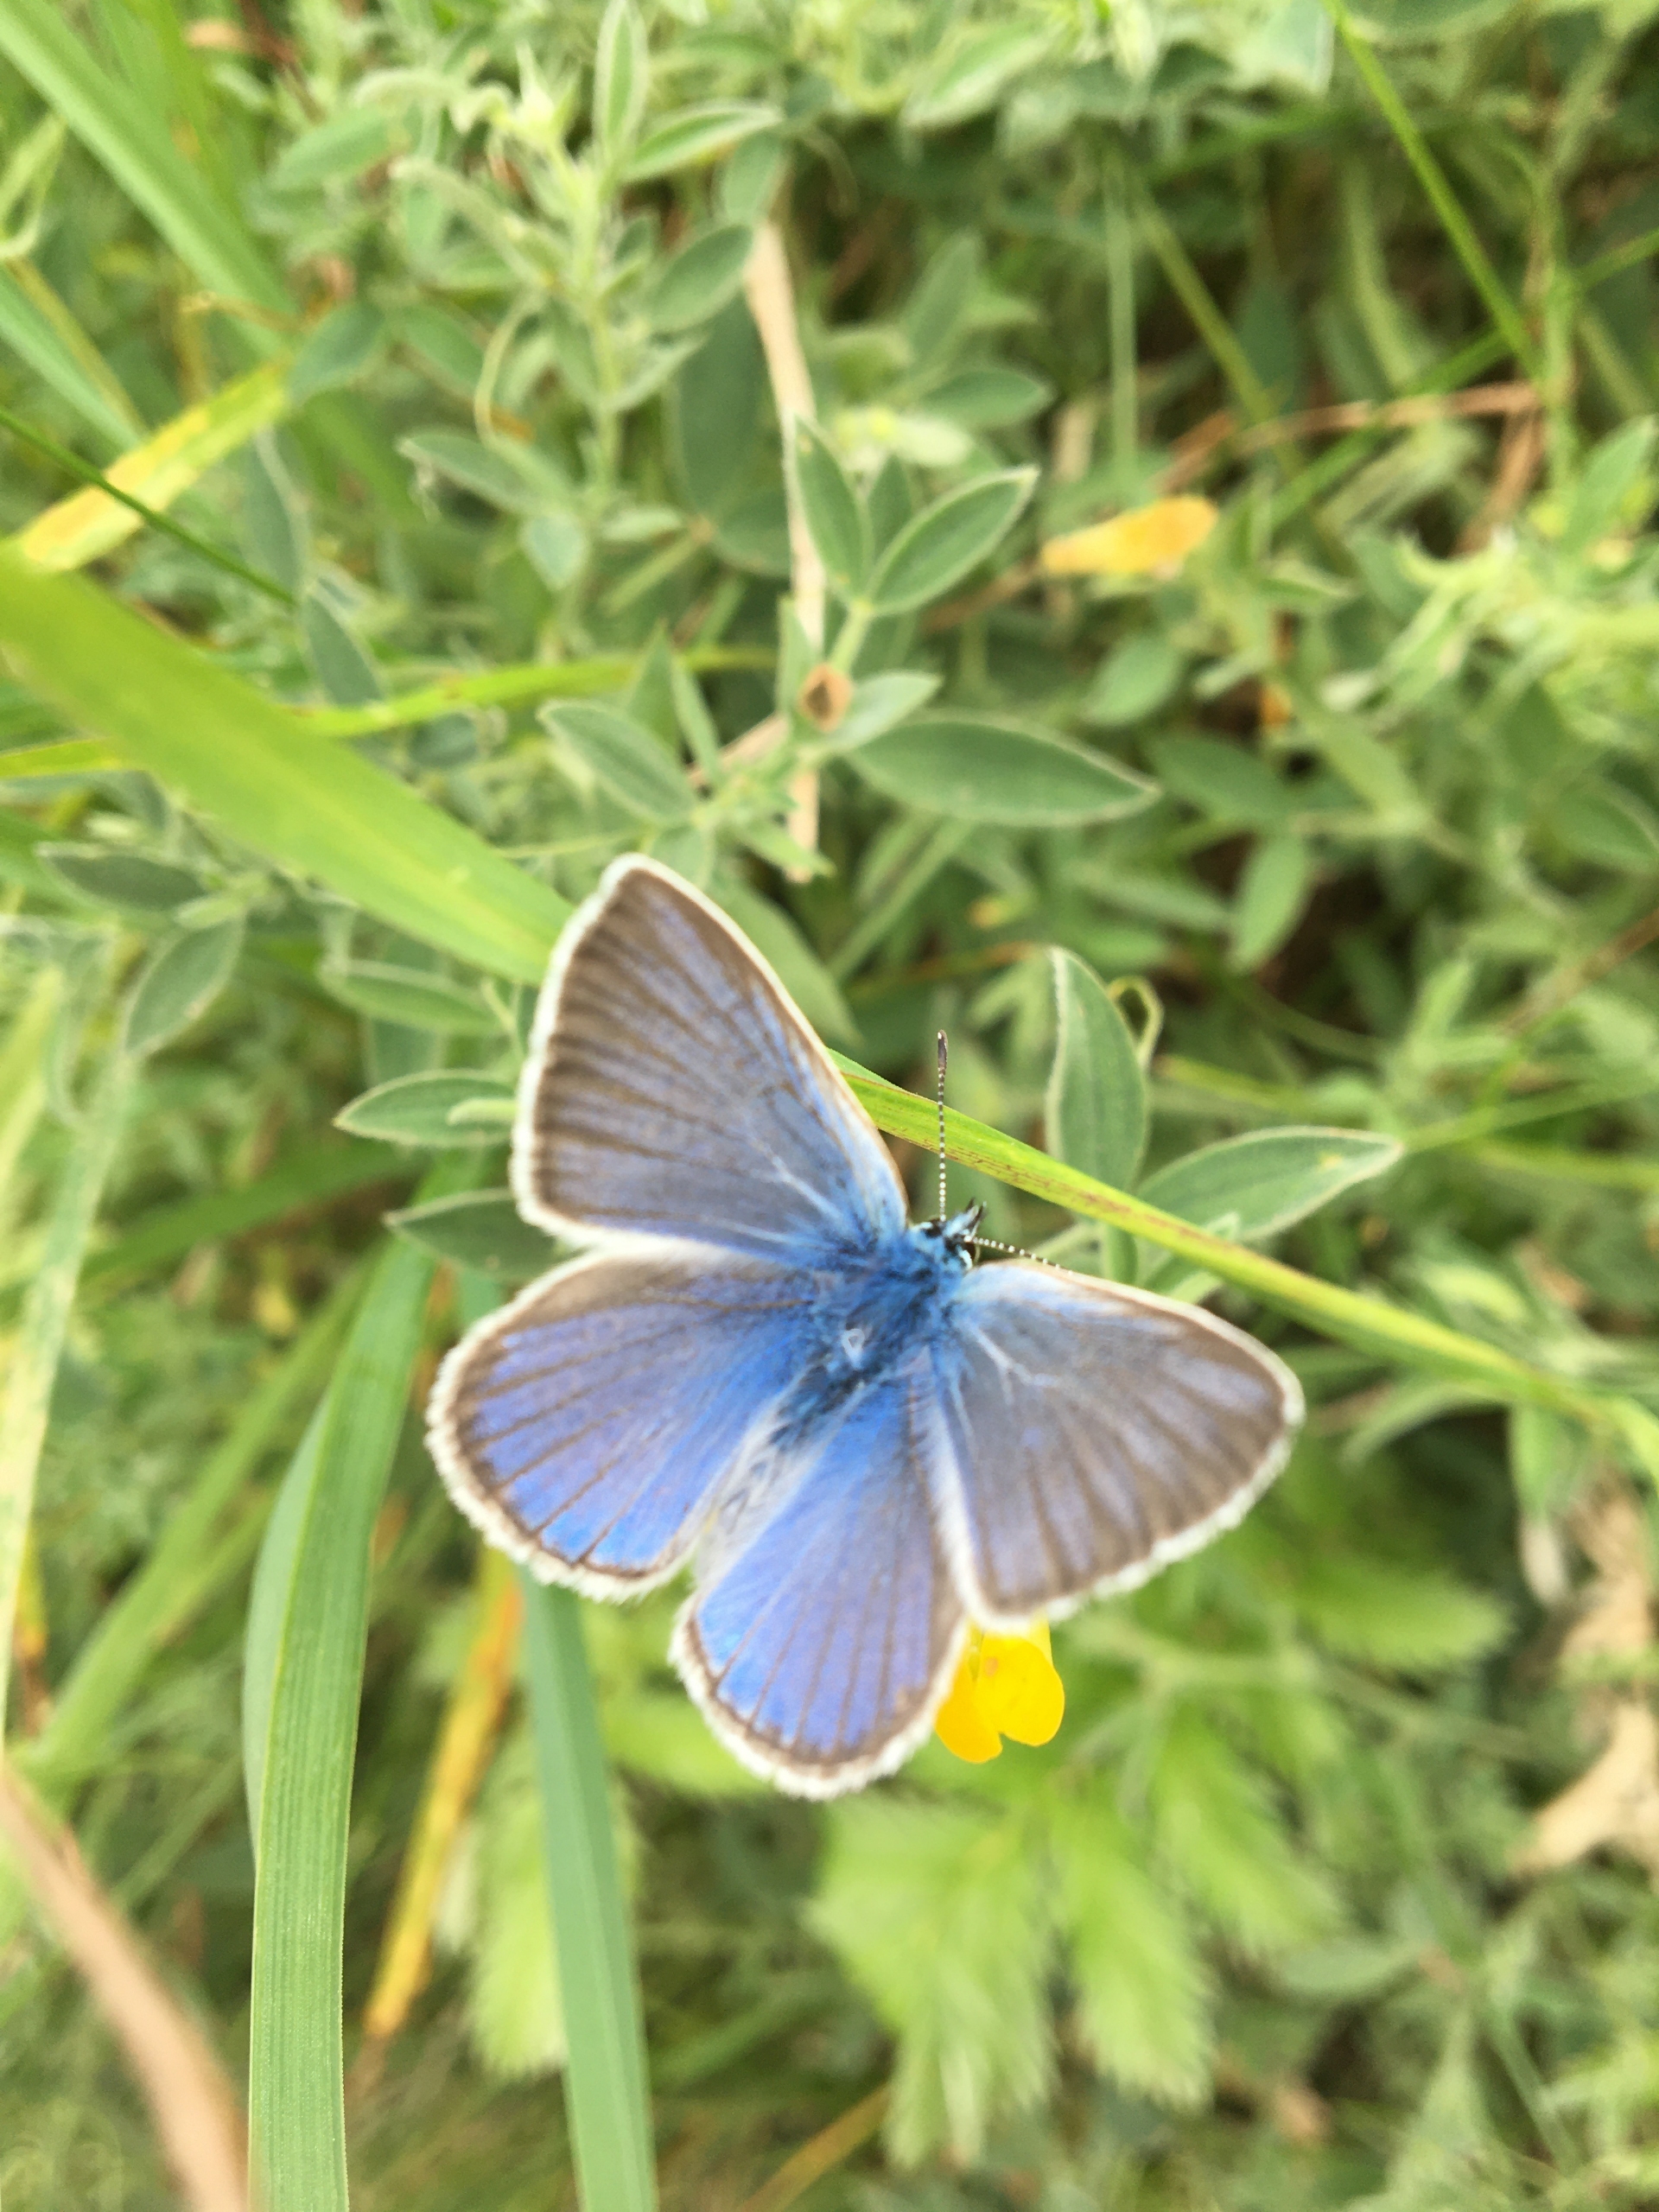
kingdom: Animalia
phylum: Arthropoda
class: Insecta
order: Lepidoptera
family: Lycaenidae
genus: Plebejus
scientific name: Plebejus amanda
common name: Isblåfugl
